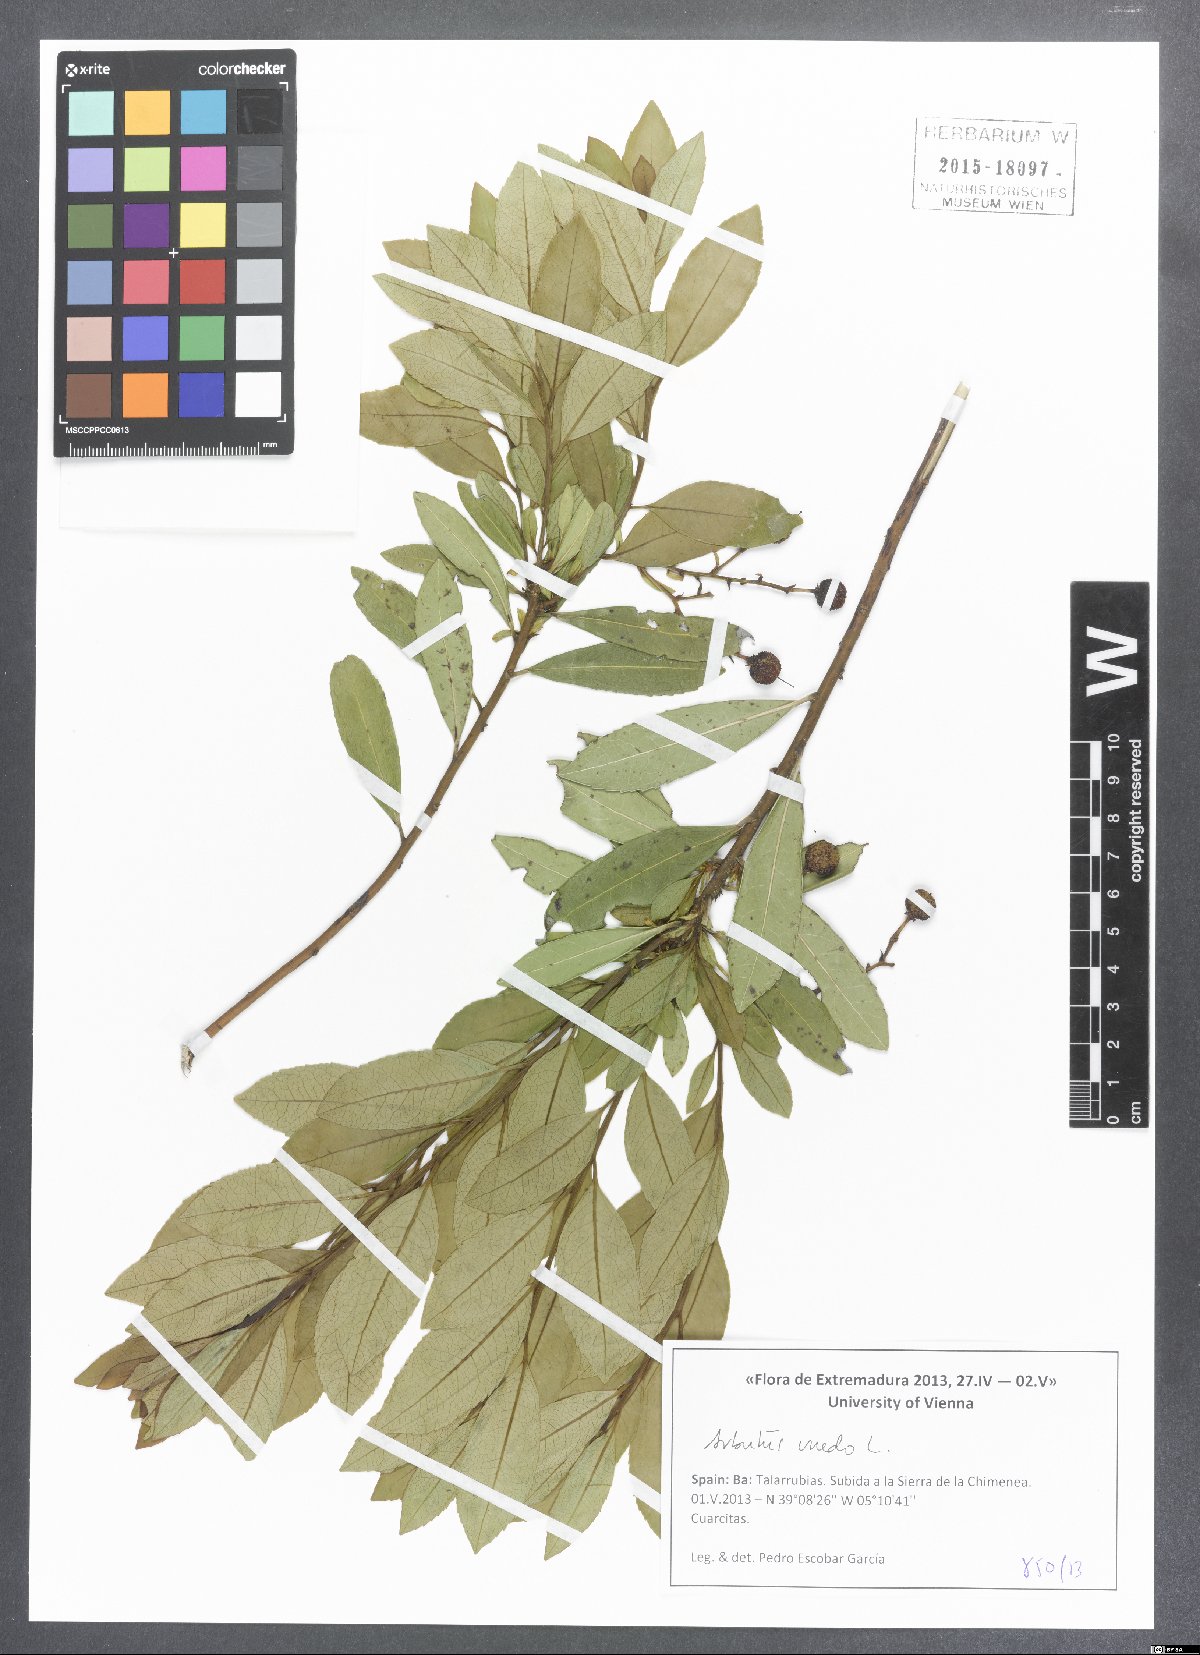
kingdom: Plantae
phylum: Tracheophyta
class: Magnoliopsida
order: Ericales
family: Ericaceae
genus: Arbutus
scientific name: Arbutus unedo
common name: Strawberry-tree
